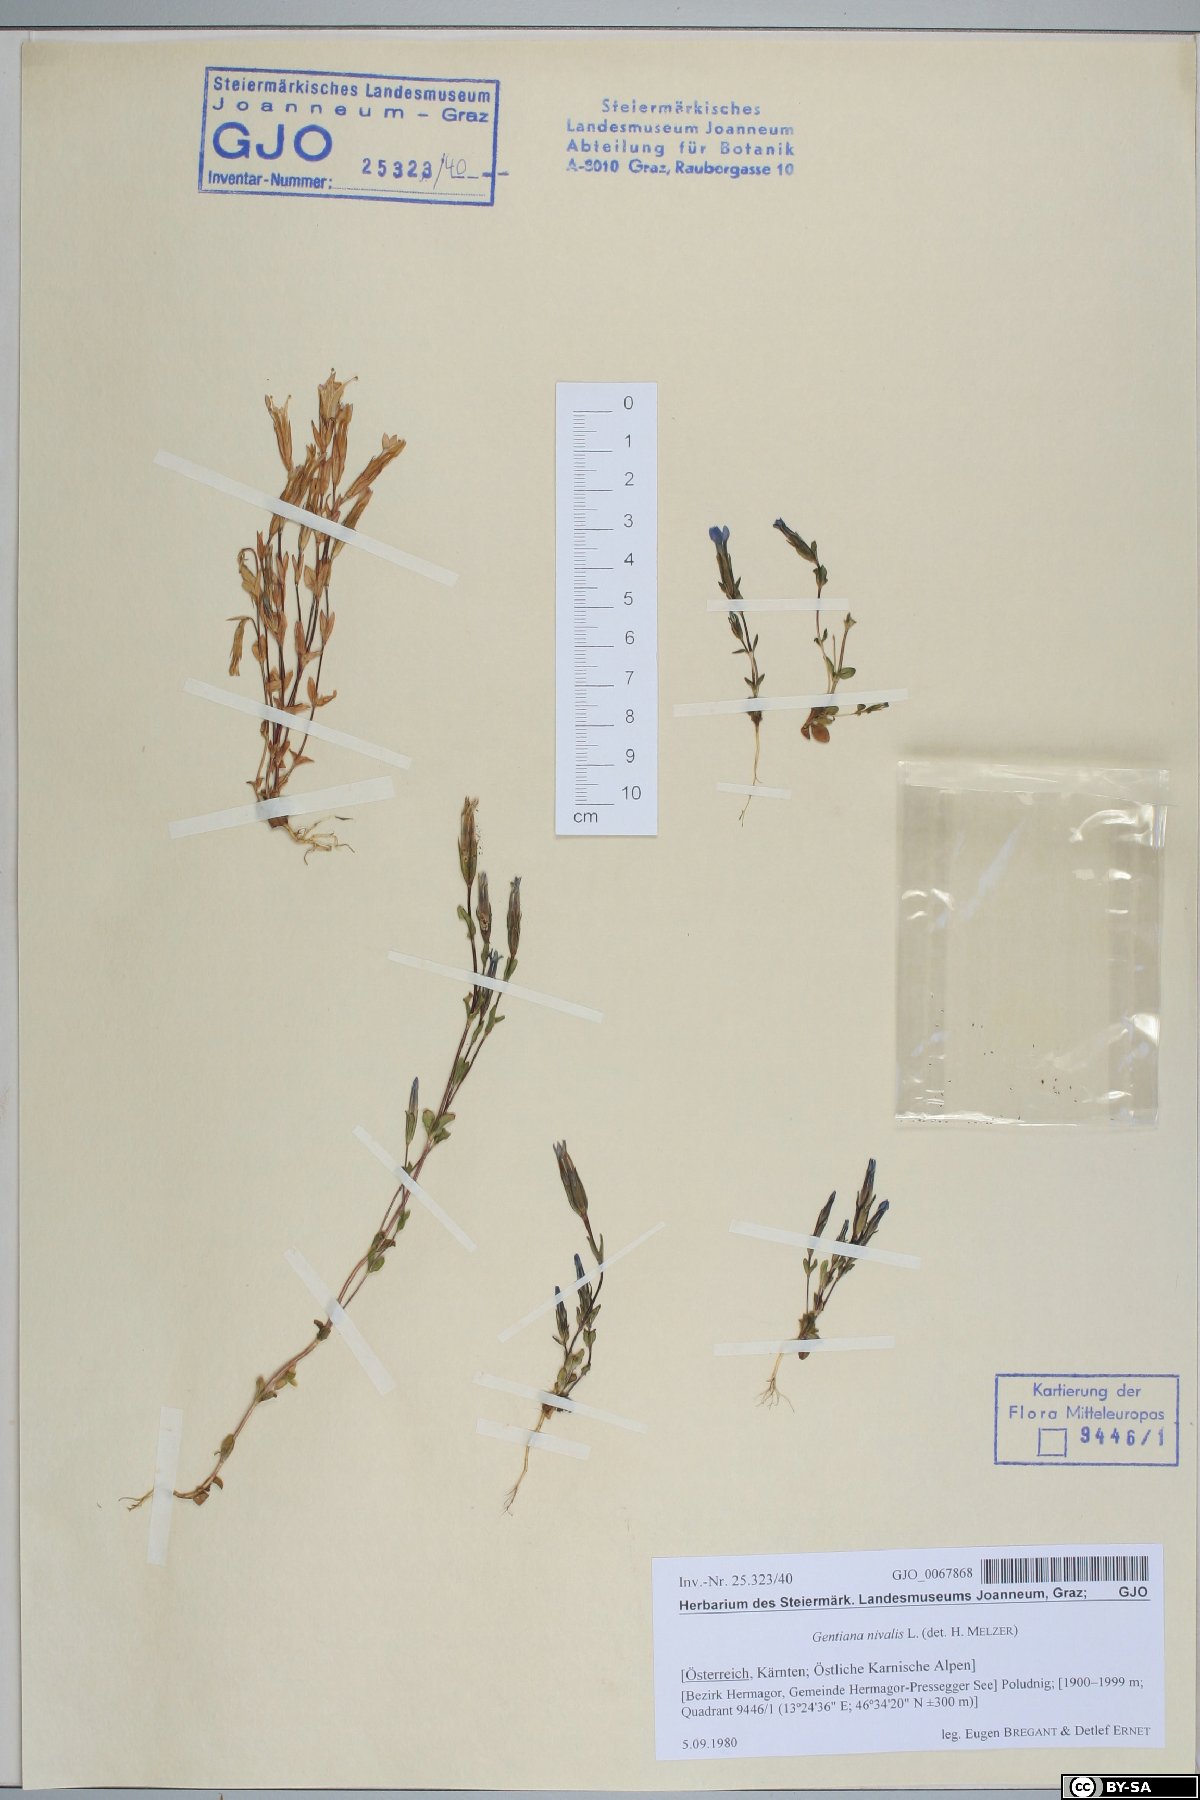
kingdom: Plantae
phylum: Tracheophyta
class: Magnoliopsida
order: Gentianales
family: Gentianaceae
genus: Gentiana
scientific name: Gentiana nivalis
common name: Alpine gentian
